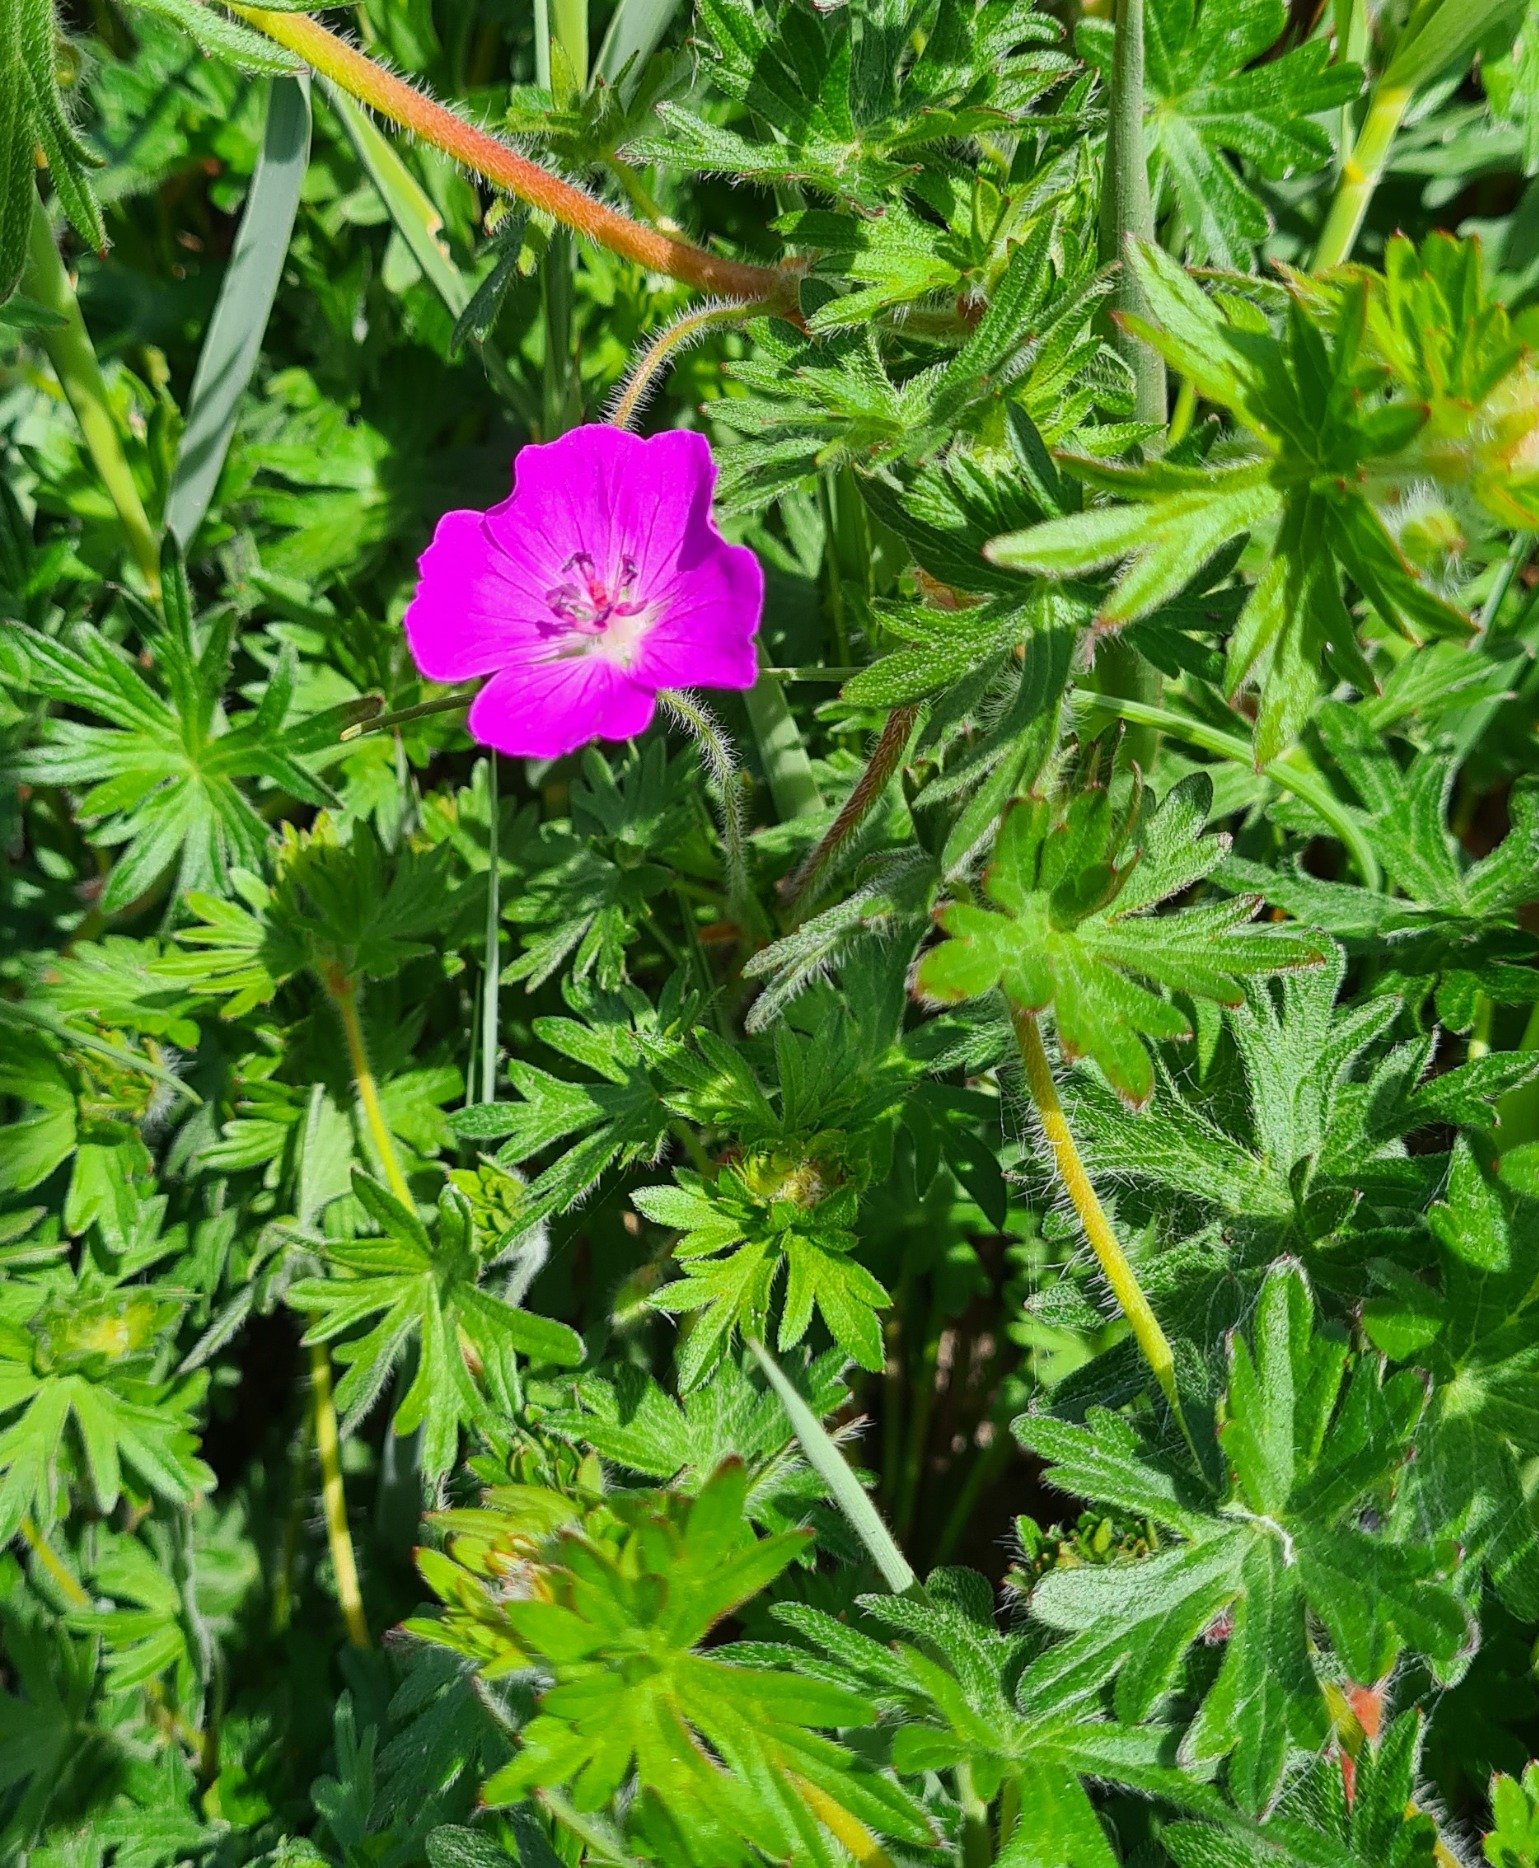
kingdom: Plantae
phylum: Tracheophyta
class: Magnoliopsida
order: Geraniales
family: Geraniaceae
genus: Geranium
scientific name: Geranium sanguineum
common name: Blodrød storkenæb
